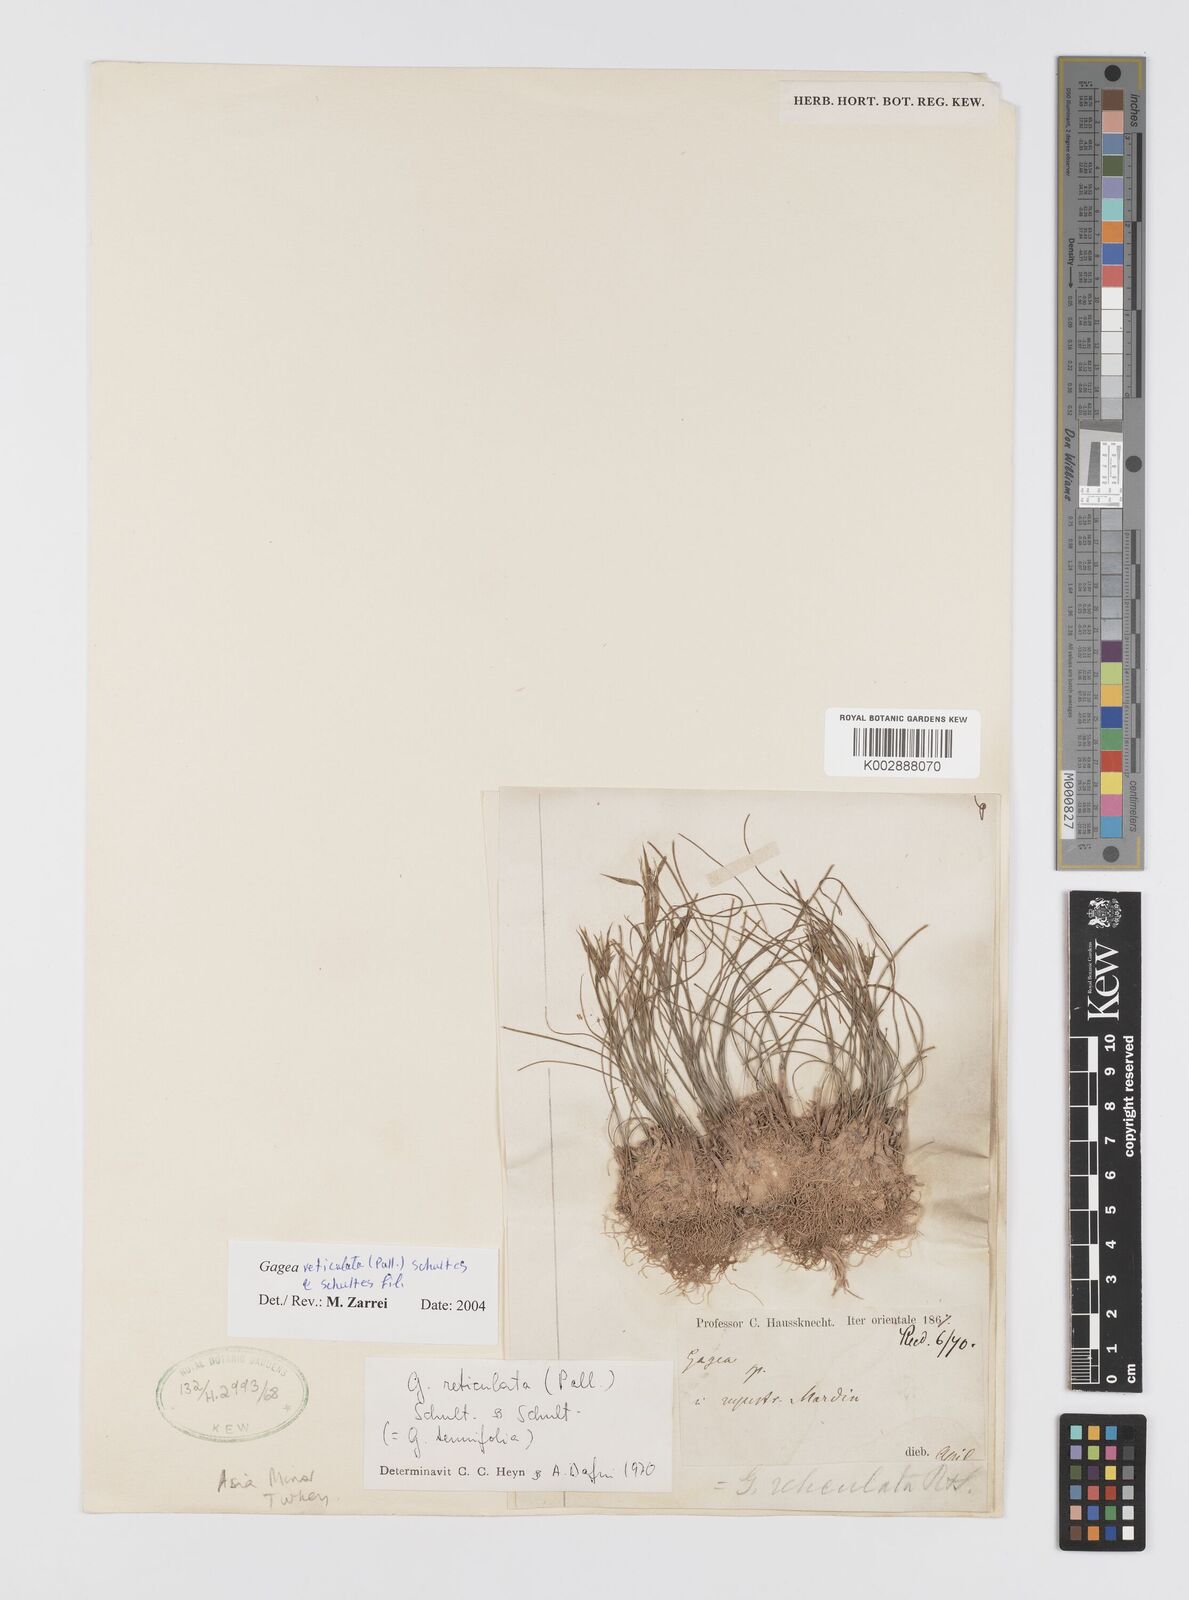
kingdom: Plantae
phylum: Tracheophyta
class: Liliopsida
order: Liliales
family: Liliaceae
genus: Gagea
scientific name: Gagea reticulata
